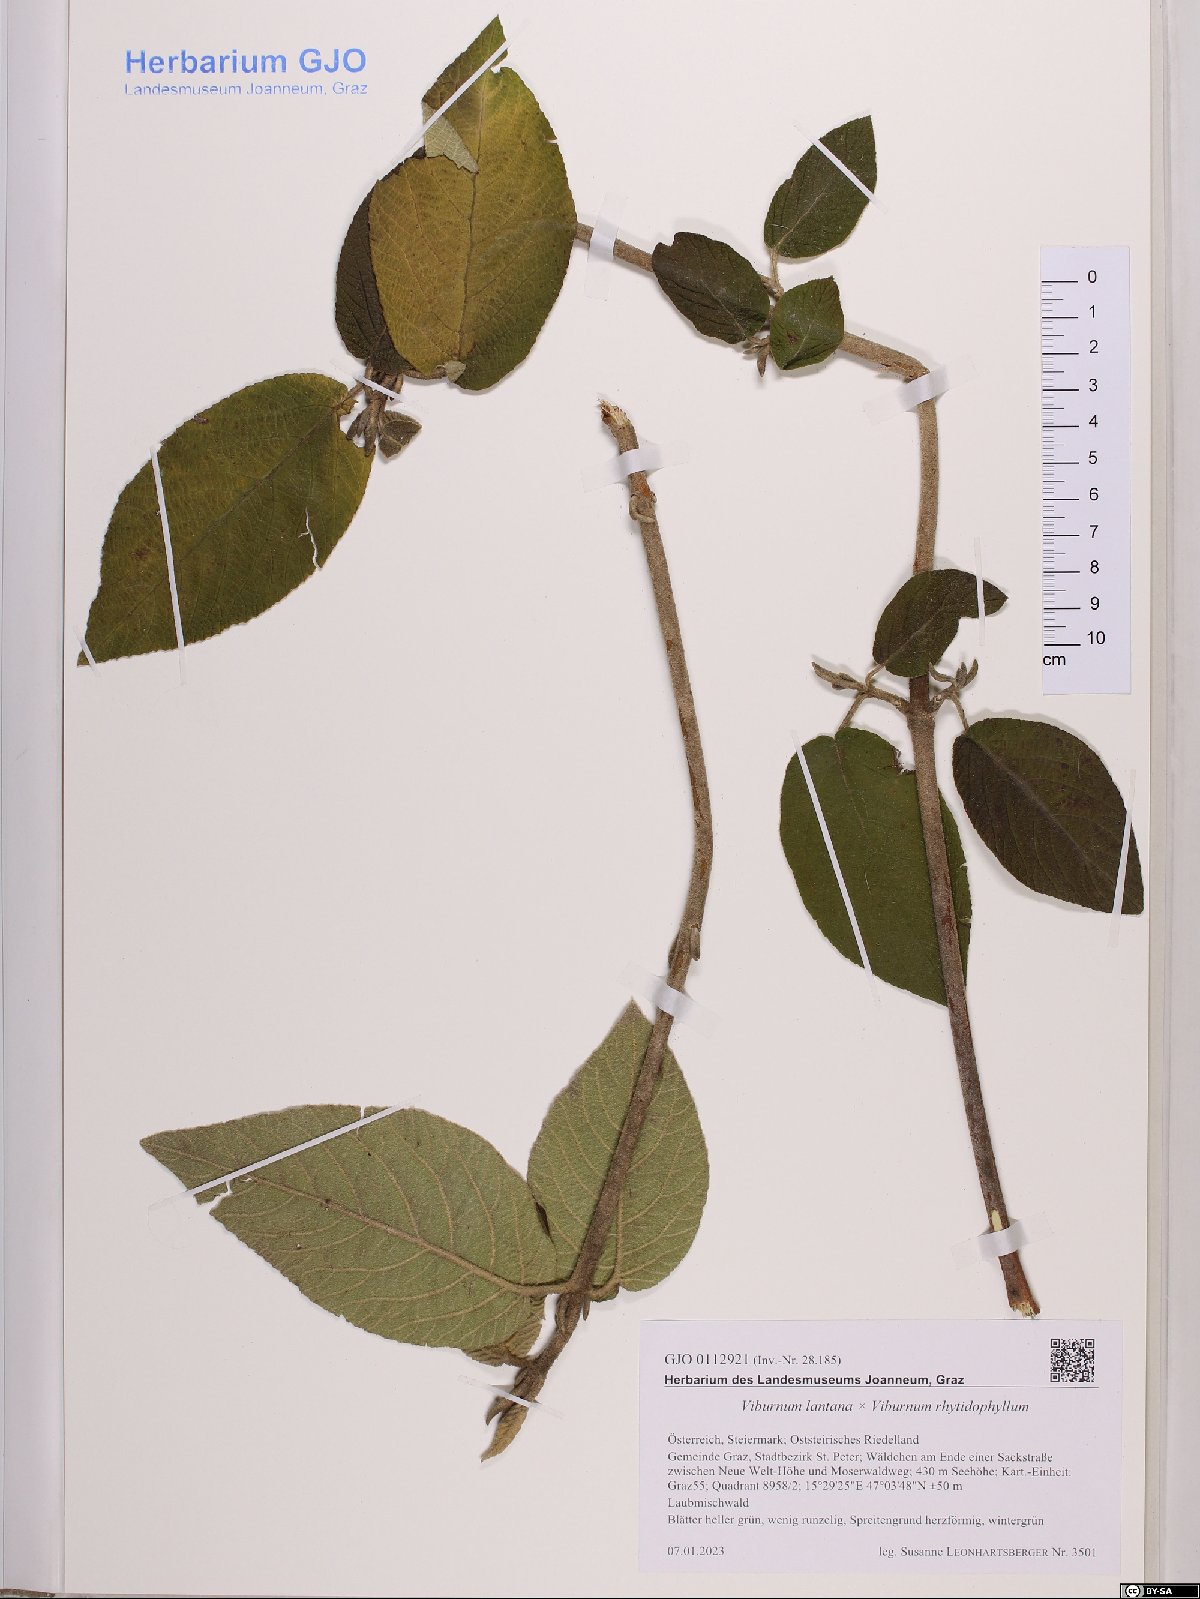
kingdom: Plantae
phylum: Tracheophyta
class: Magnoliopsida
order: Dipsacales
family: Caprifoliaceae
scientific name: Caprifoliaceae
